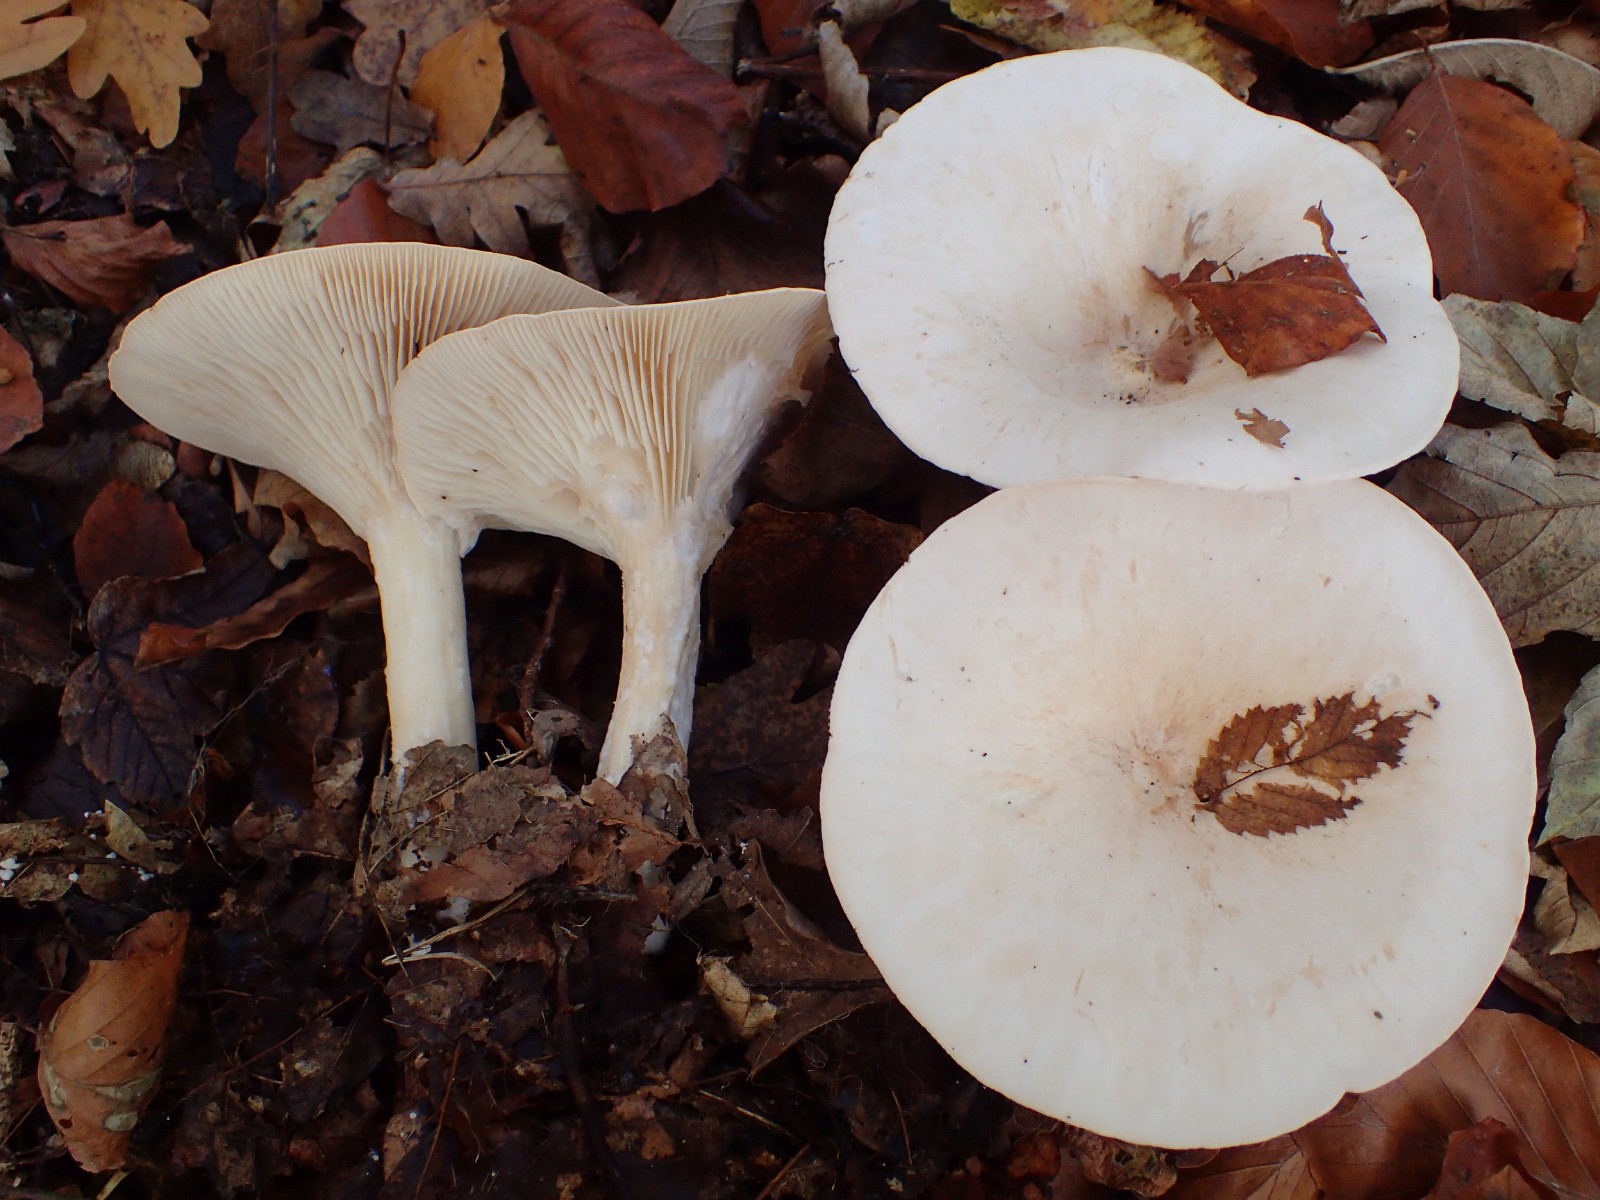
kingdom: Fungi
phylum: Basidiomycota
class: Agaricomycetes
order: Agaricales
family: Tricholomataceae
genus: Infundibulicybe
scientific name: Infundibulicybe geotropa
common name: stor tragthat
